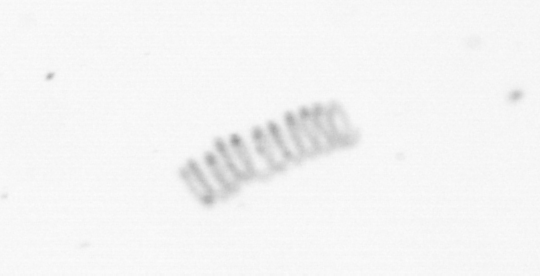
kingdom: Chromista
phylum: Ochrophyta
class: Bacillariophyceae
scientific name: Bacillariophyceae
